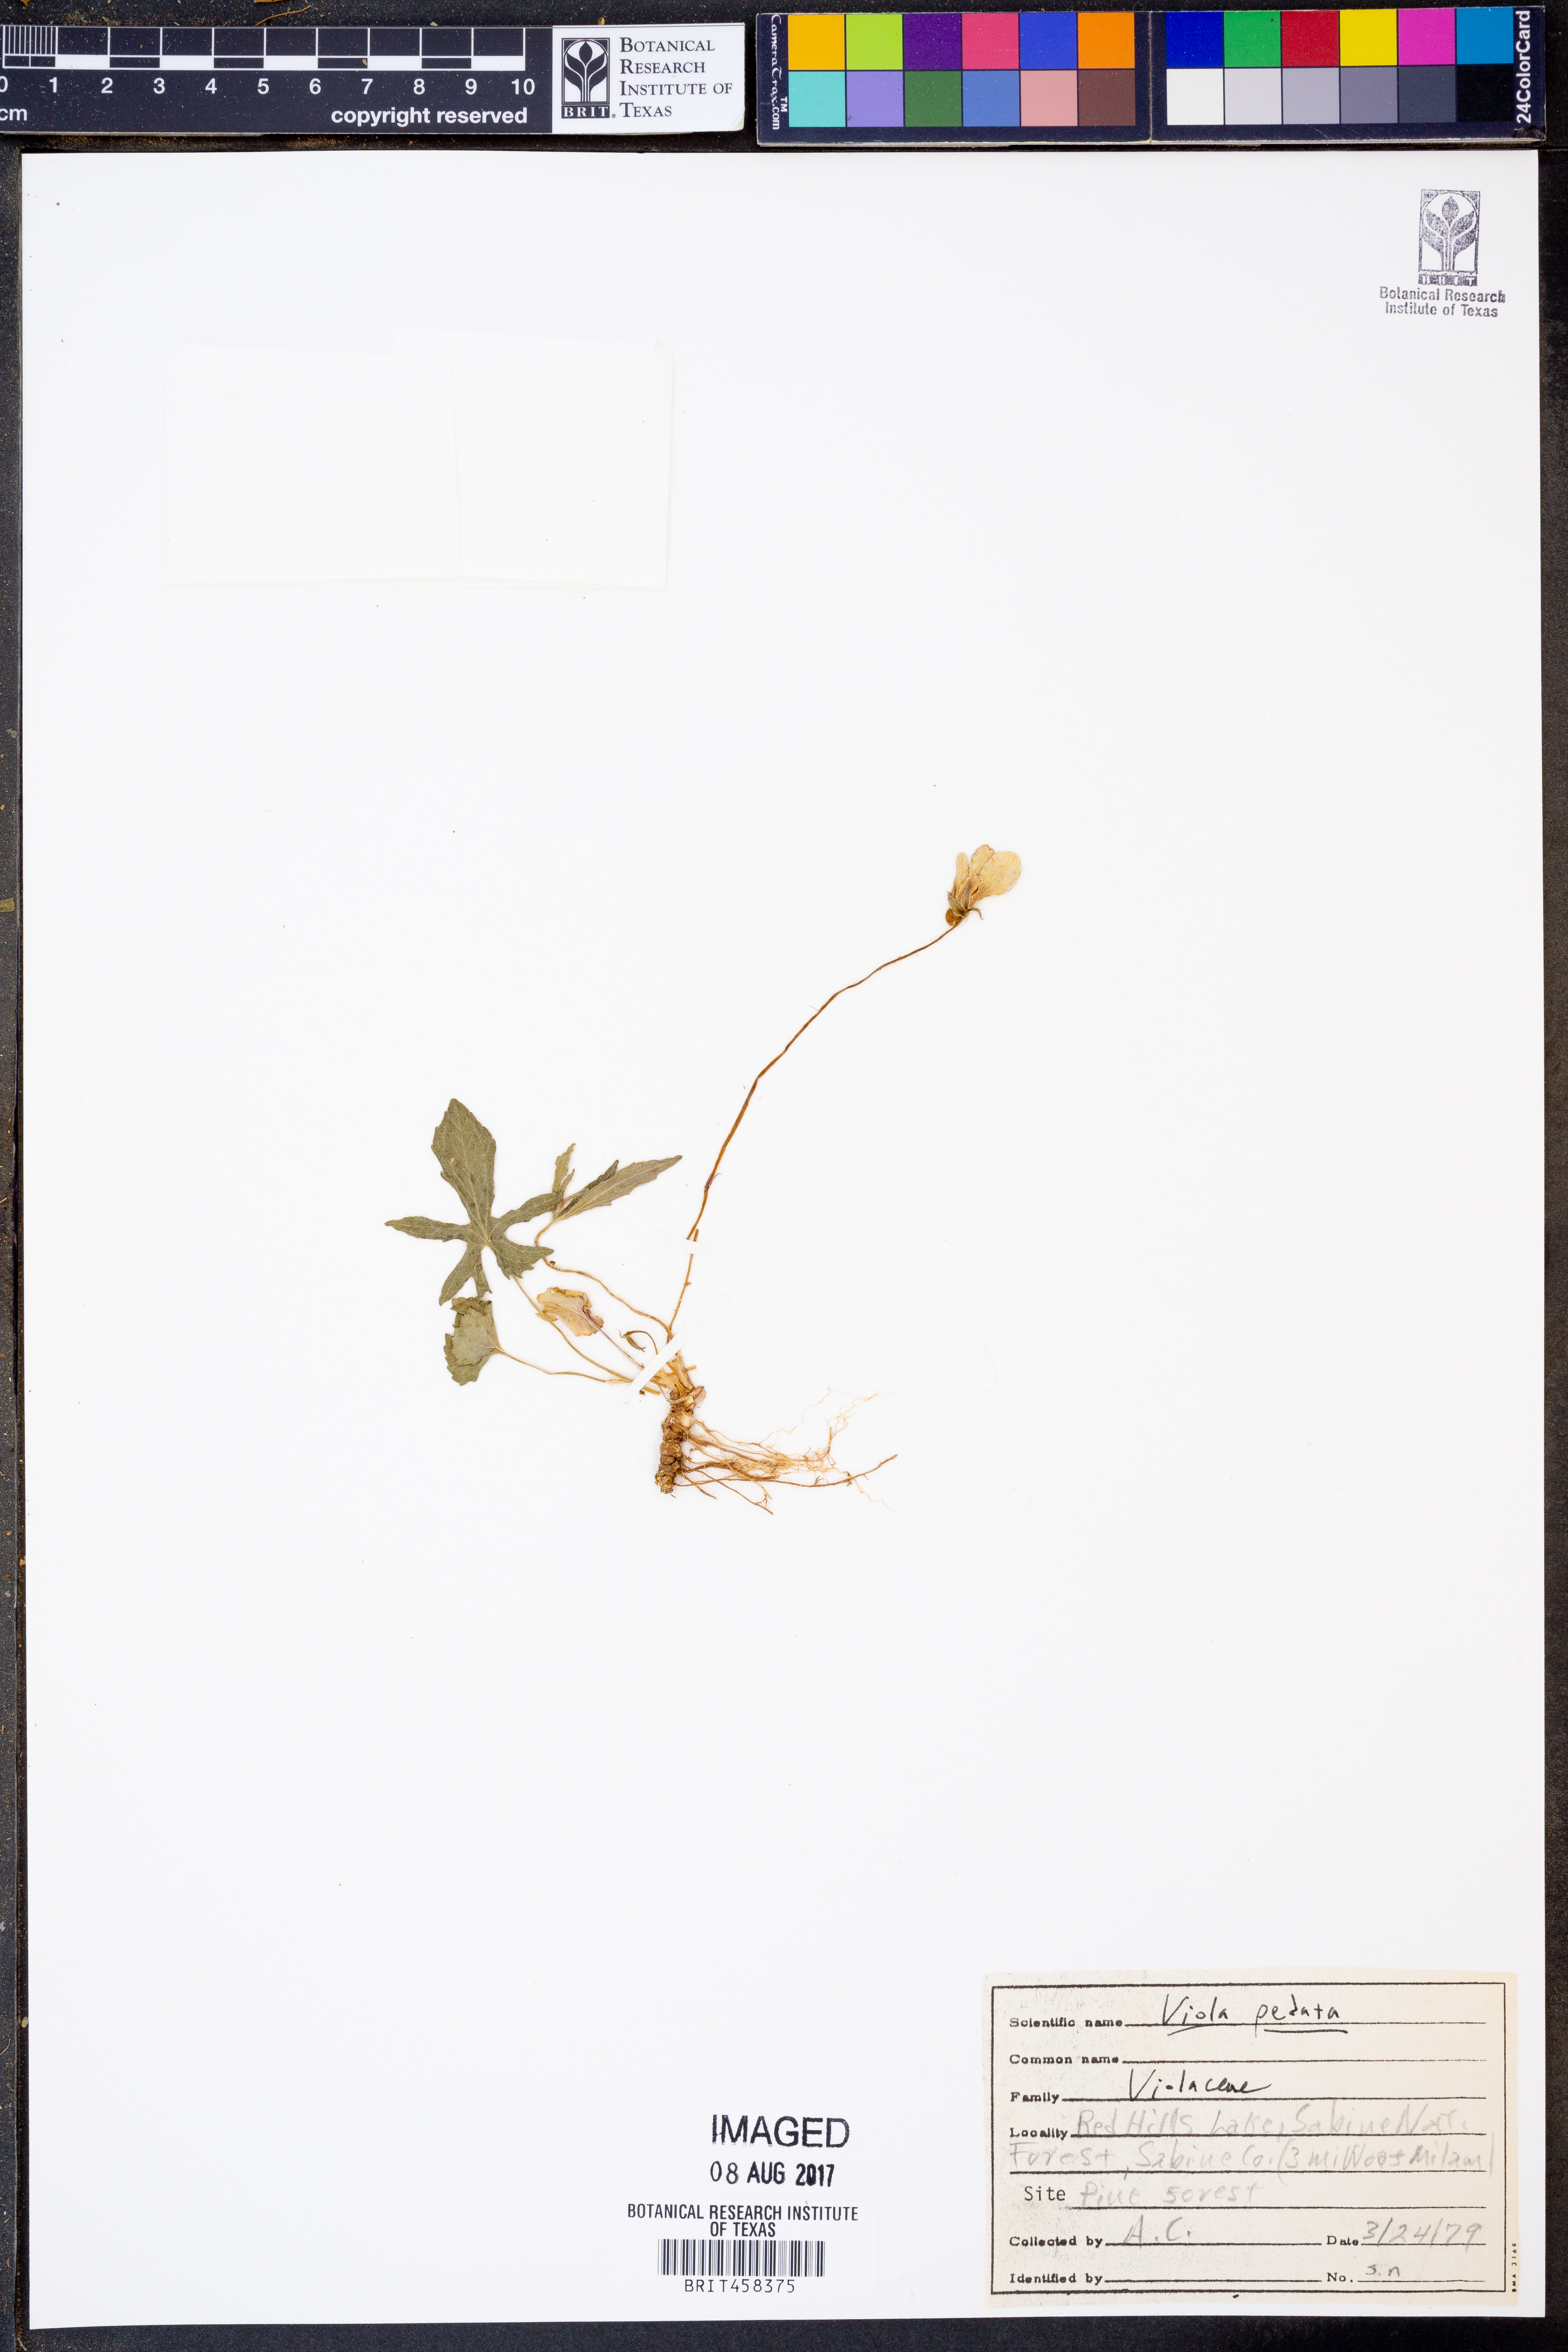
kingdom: Plantae
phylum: Tracheophyta
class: Magnoliopsida
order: Malpighiales
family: Violaceae
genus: Viola
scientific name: Viola pedata
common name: Pansy violet
